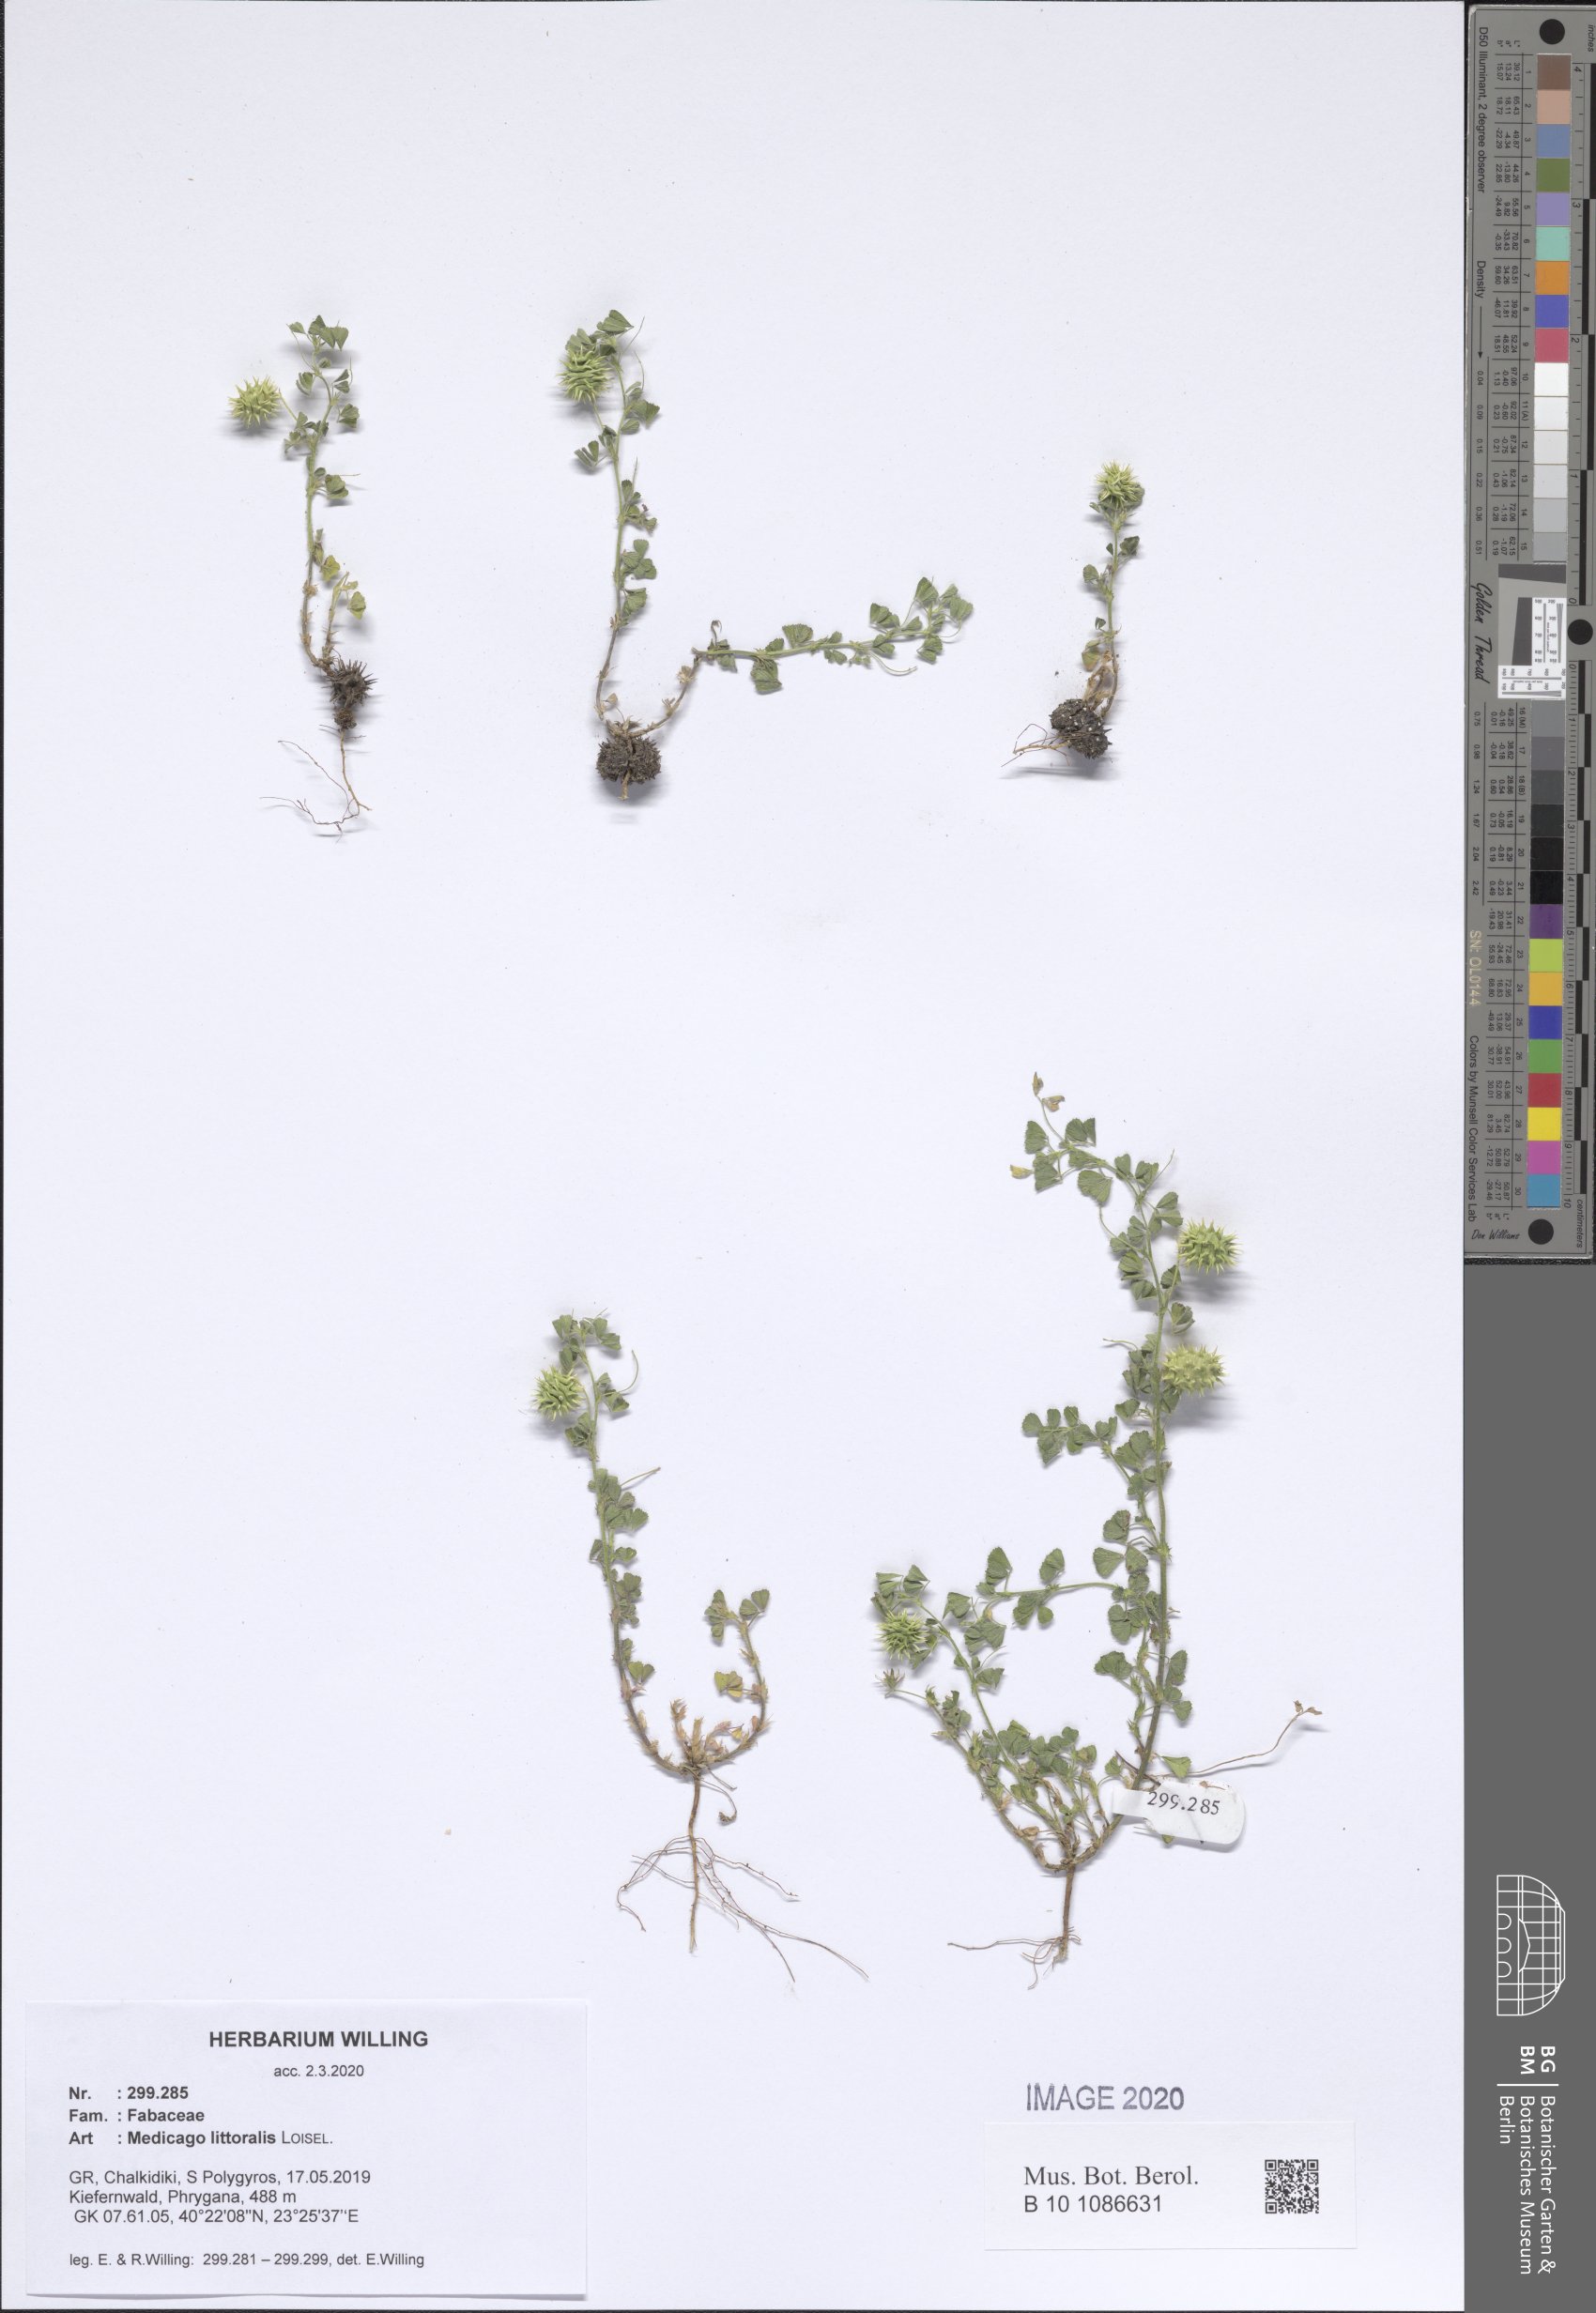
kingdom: Plantae
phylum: Tracheophyta
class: Magnoliopsida
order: Fabales
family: Fabaceae
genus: Medicago
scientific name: Medicago littoralis
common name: Shore medick
